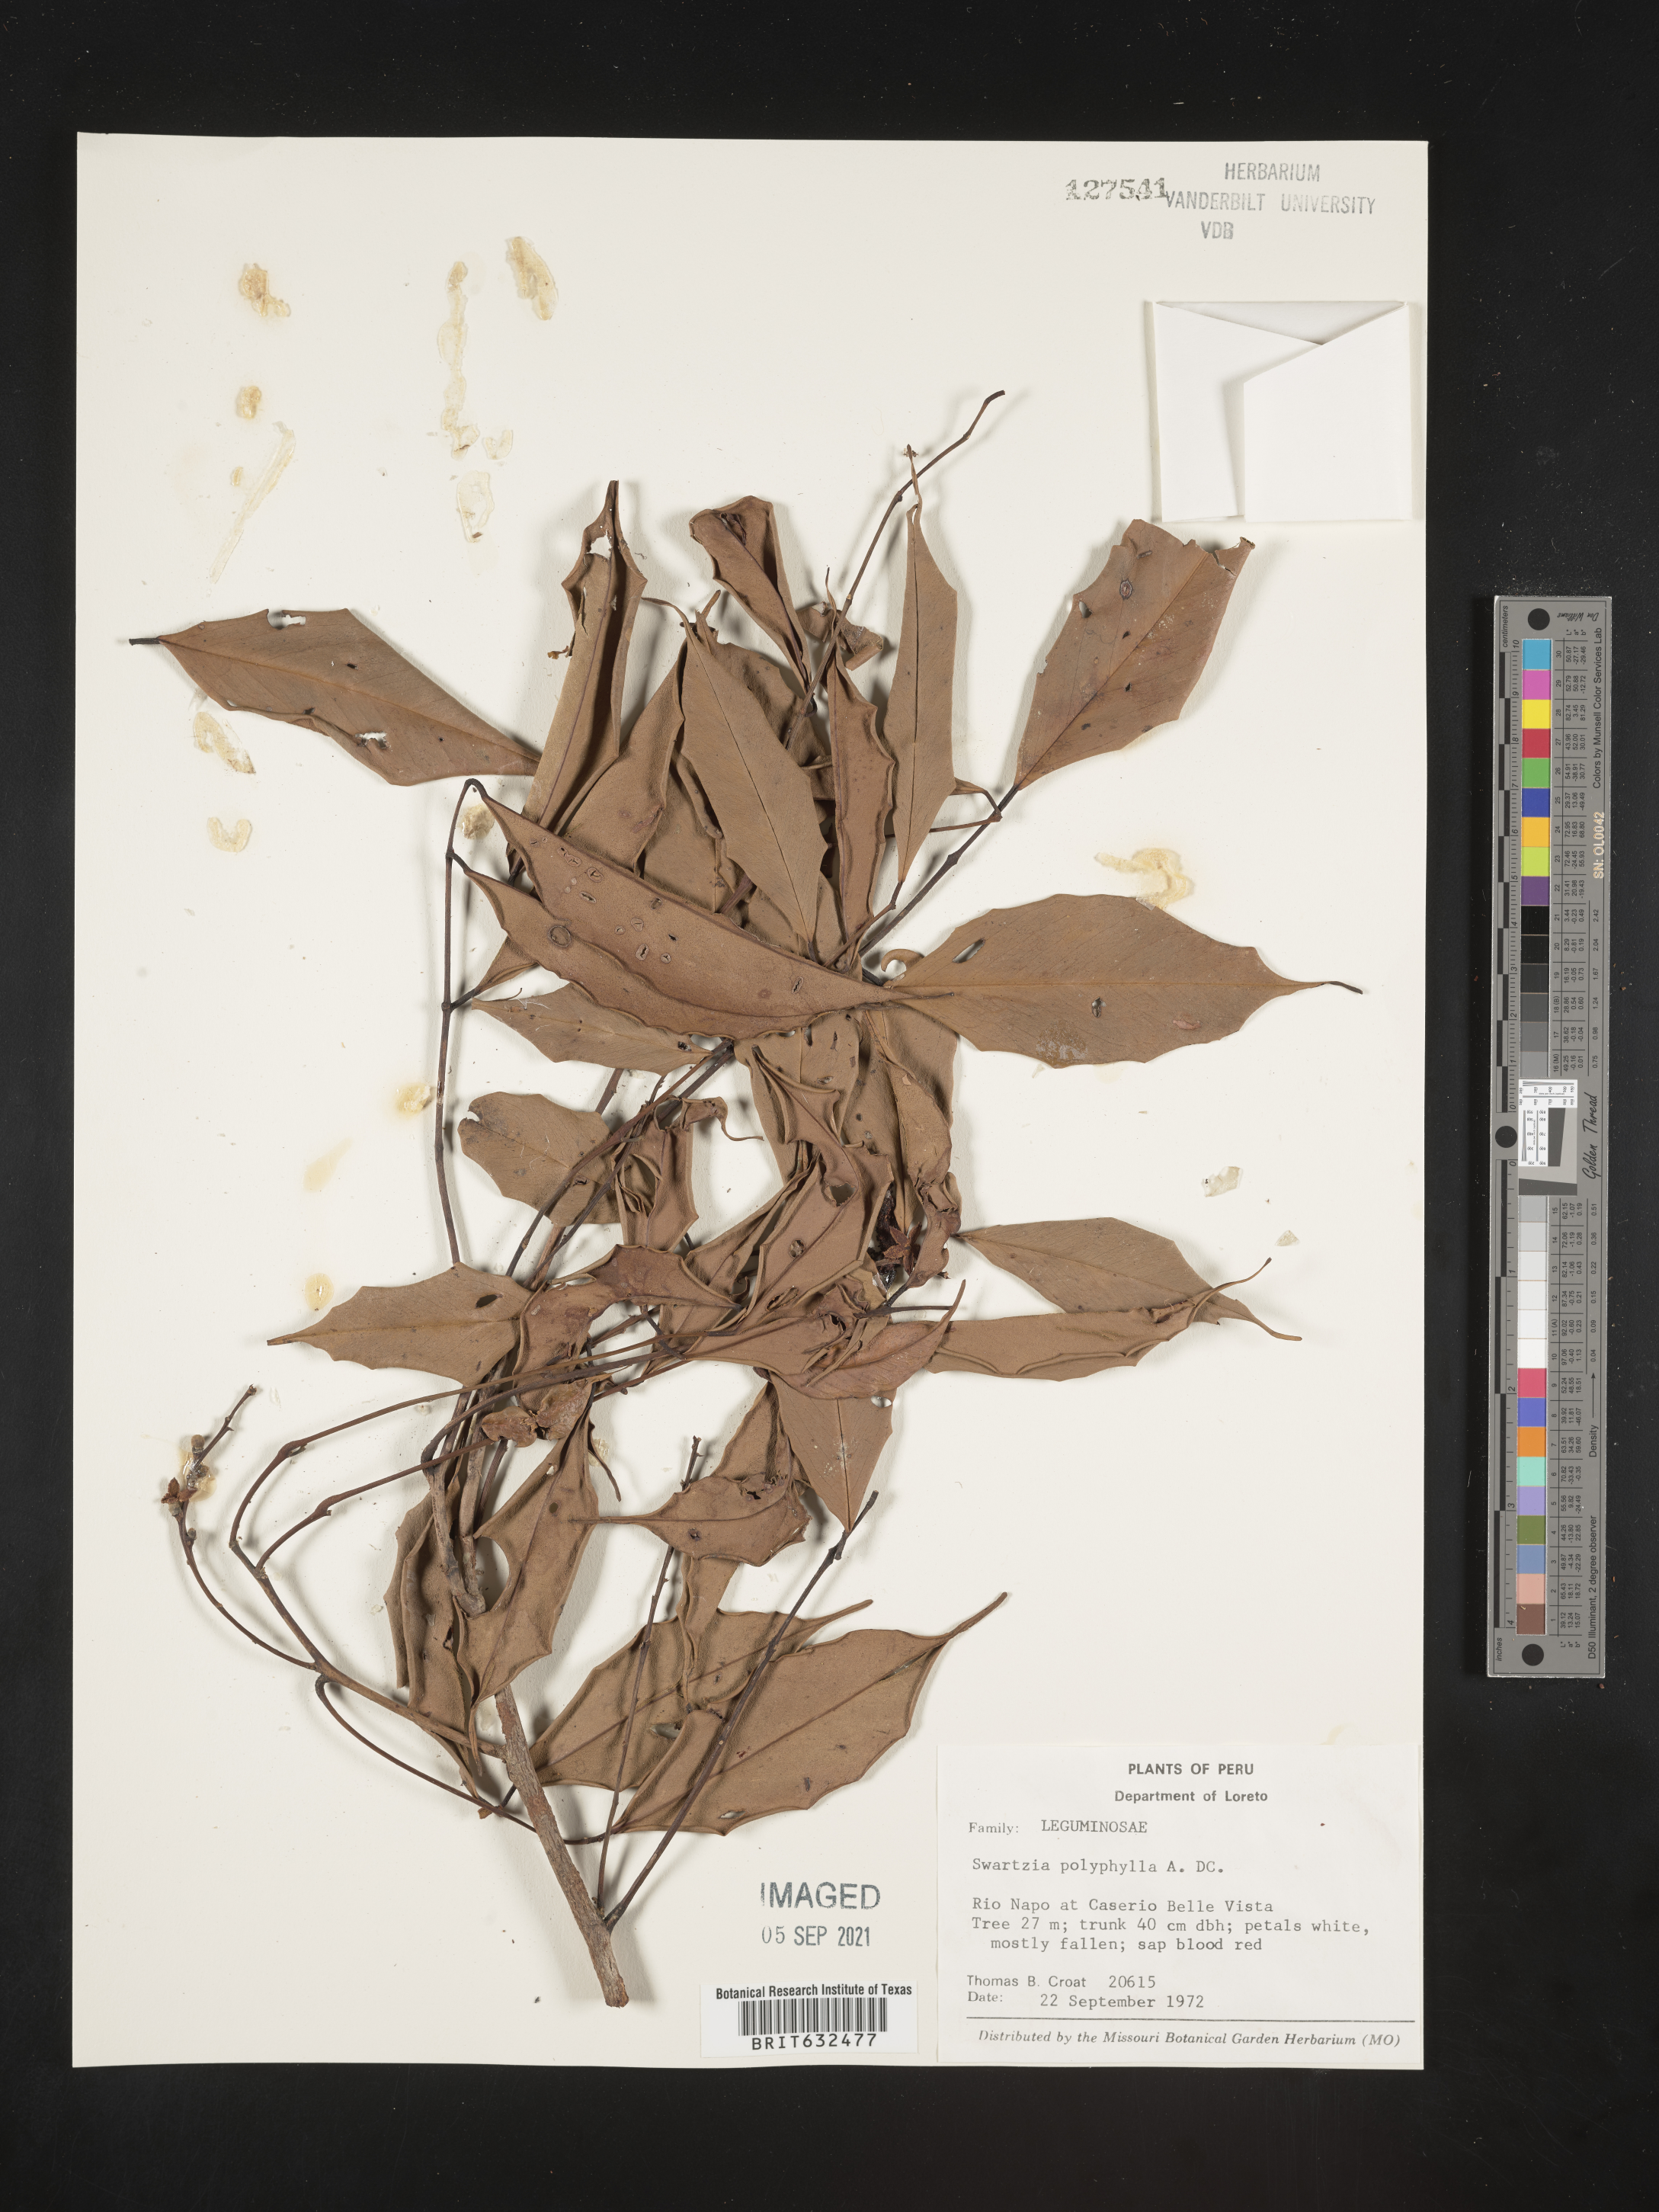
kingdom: Plantae
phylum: Tracheophyta
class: Magnoliopsida
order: Fabales
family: Fabaceae
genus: Swartzia
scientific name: Swartzia
